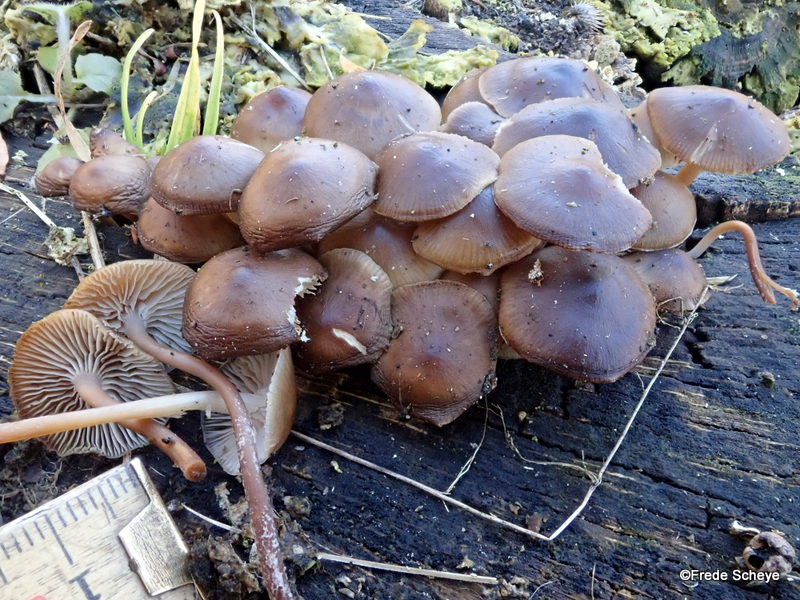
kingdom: Fungi
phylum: Basidiomycota
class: Agaricomycetes
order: Agaricales
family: Mycenaceae
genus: Mycena
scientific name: Mycena tintinnabulum
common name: vinter-huesvamp
